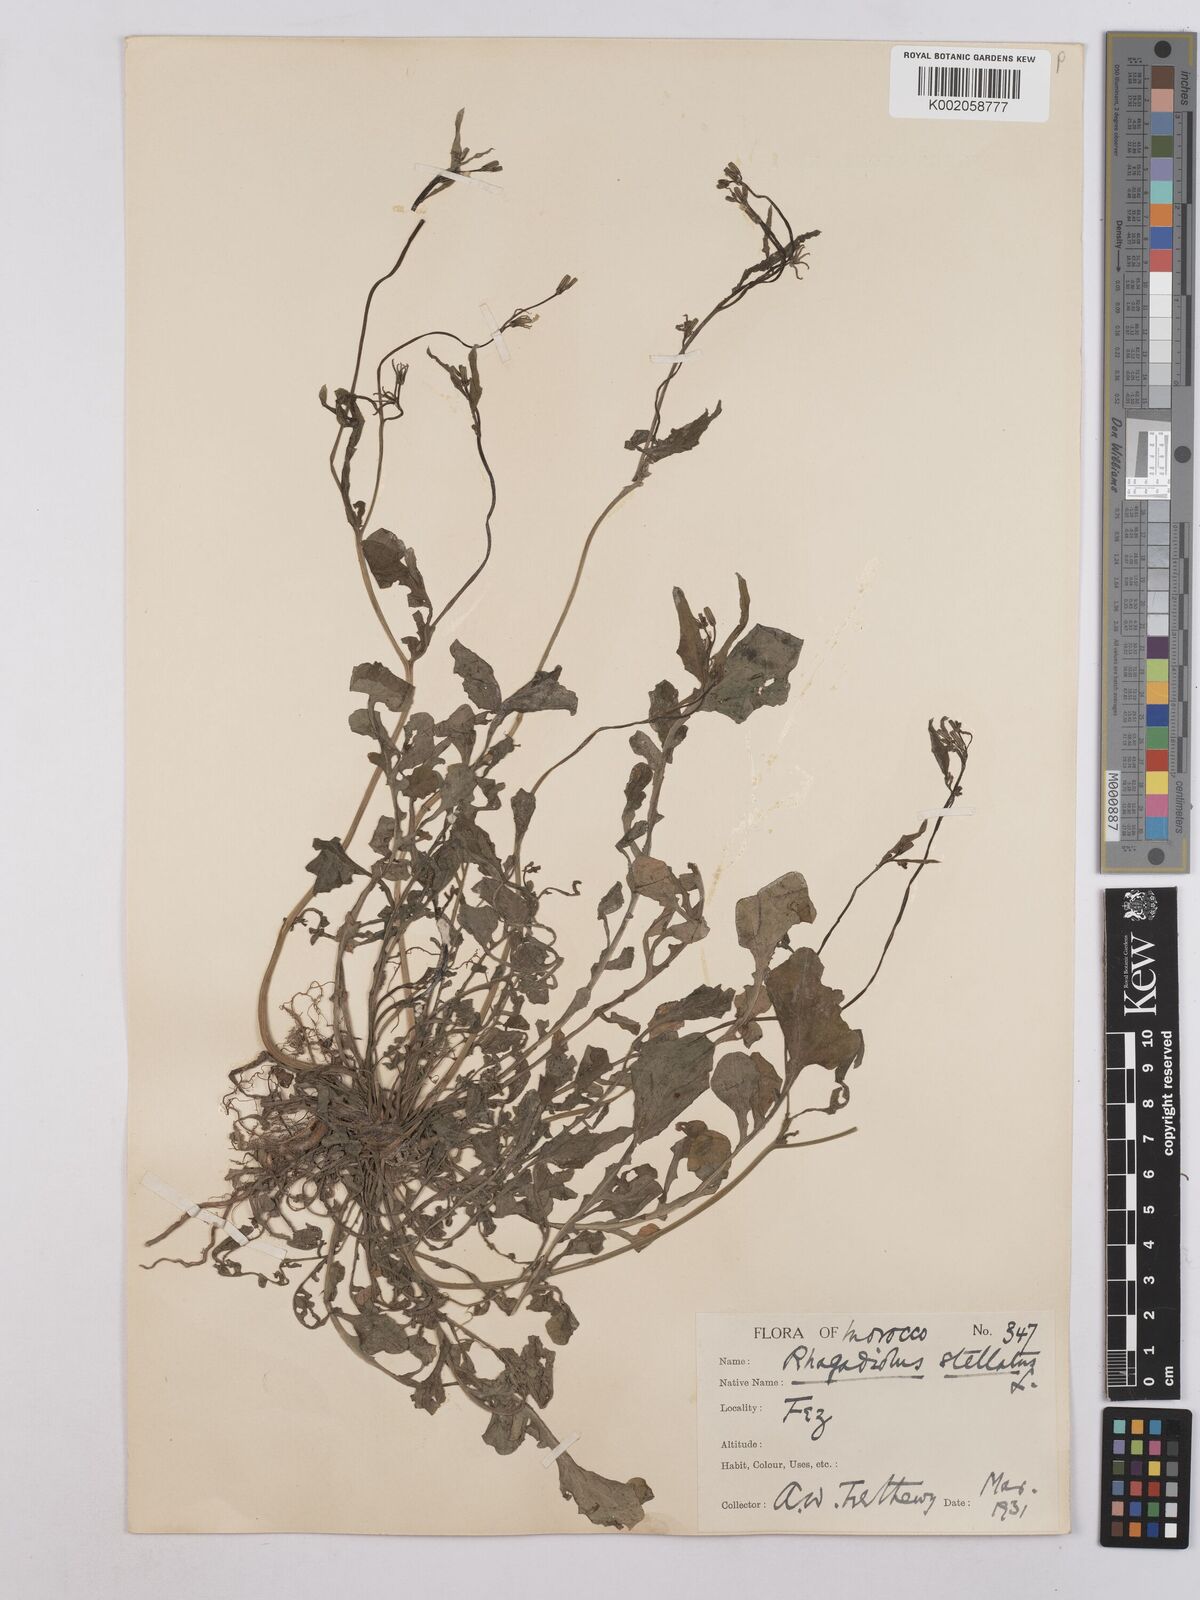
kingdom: Plantae
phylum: Tracheophyta
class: Magnoliopsida
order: Asterales
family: Asteraceae
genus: Rhagadiolus
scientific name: Rhagadiolus stellatus
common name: Star hawkbit
